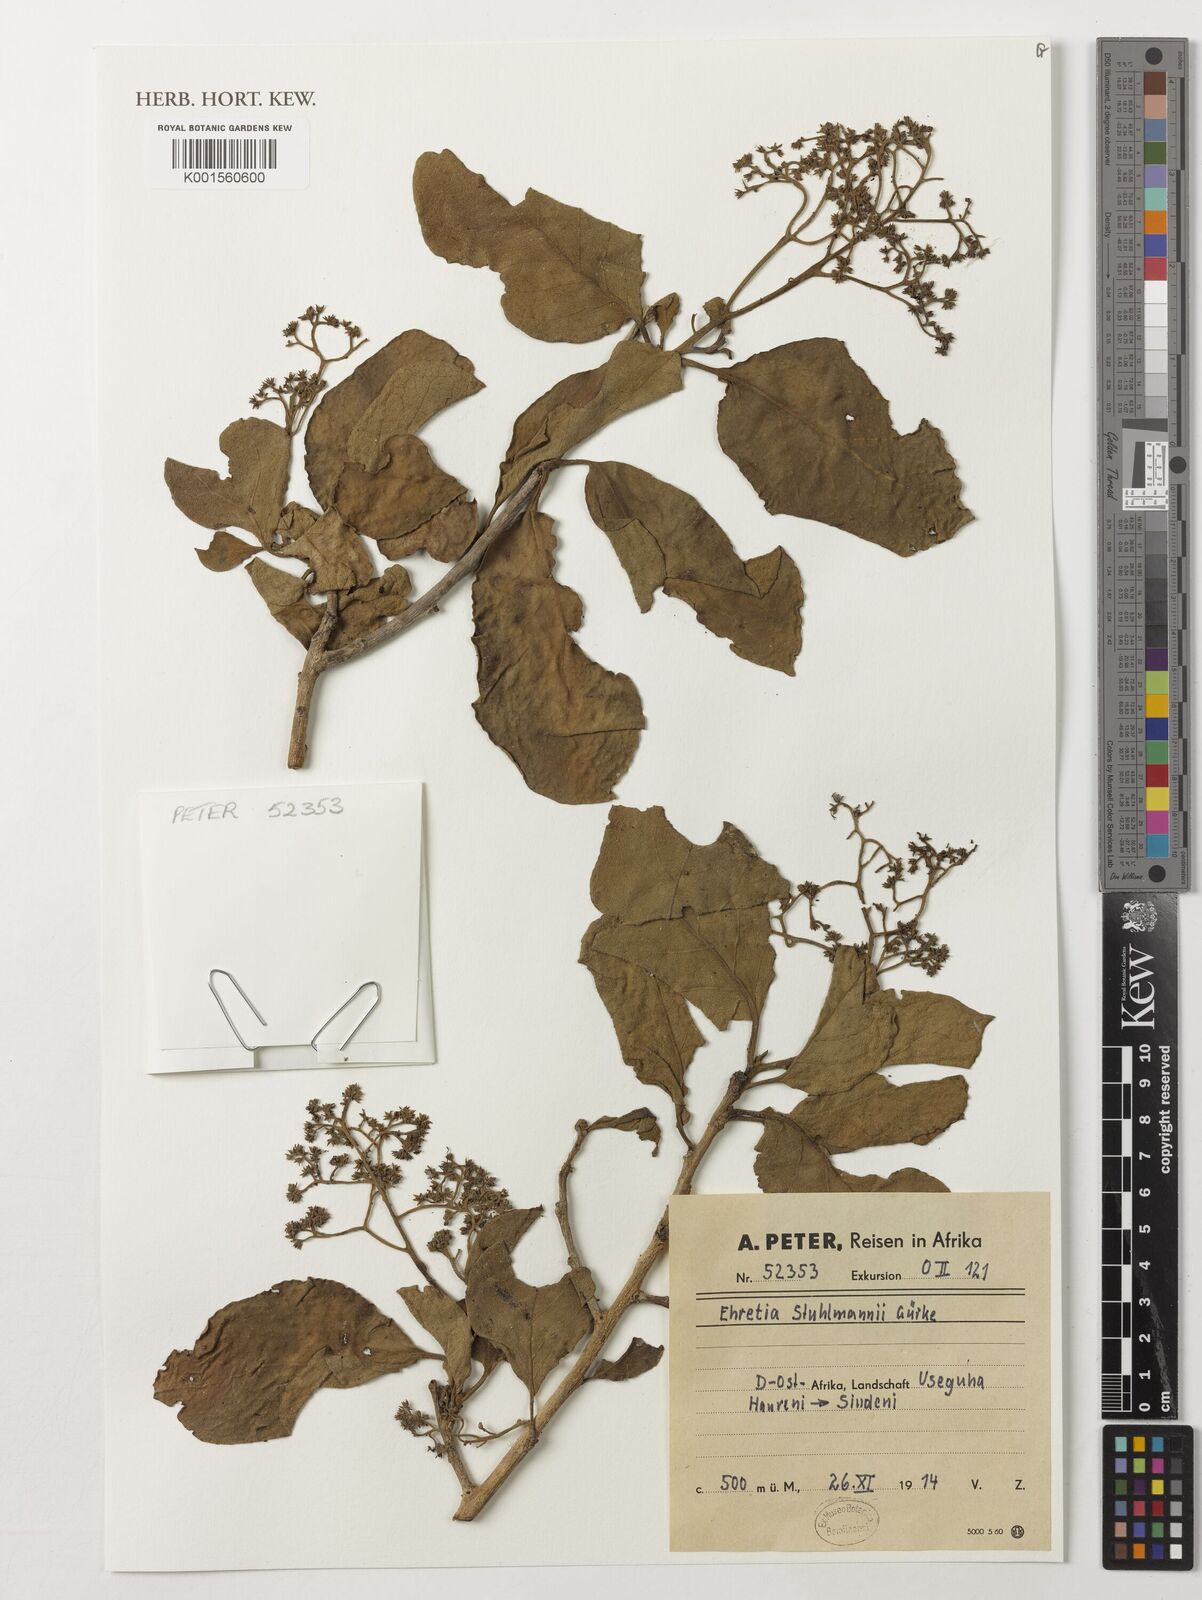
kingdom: Plantae
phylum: Tracheophyta
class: Magnoliopsida
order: Boraginales
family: Ehretiaceae
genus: Ehretia
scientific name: Ehretia amoena
